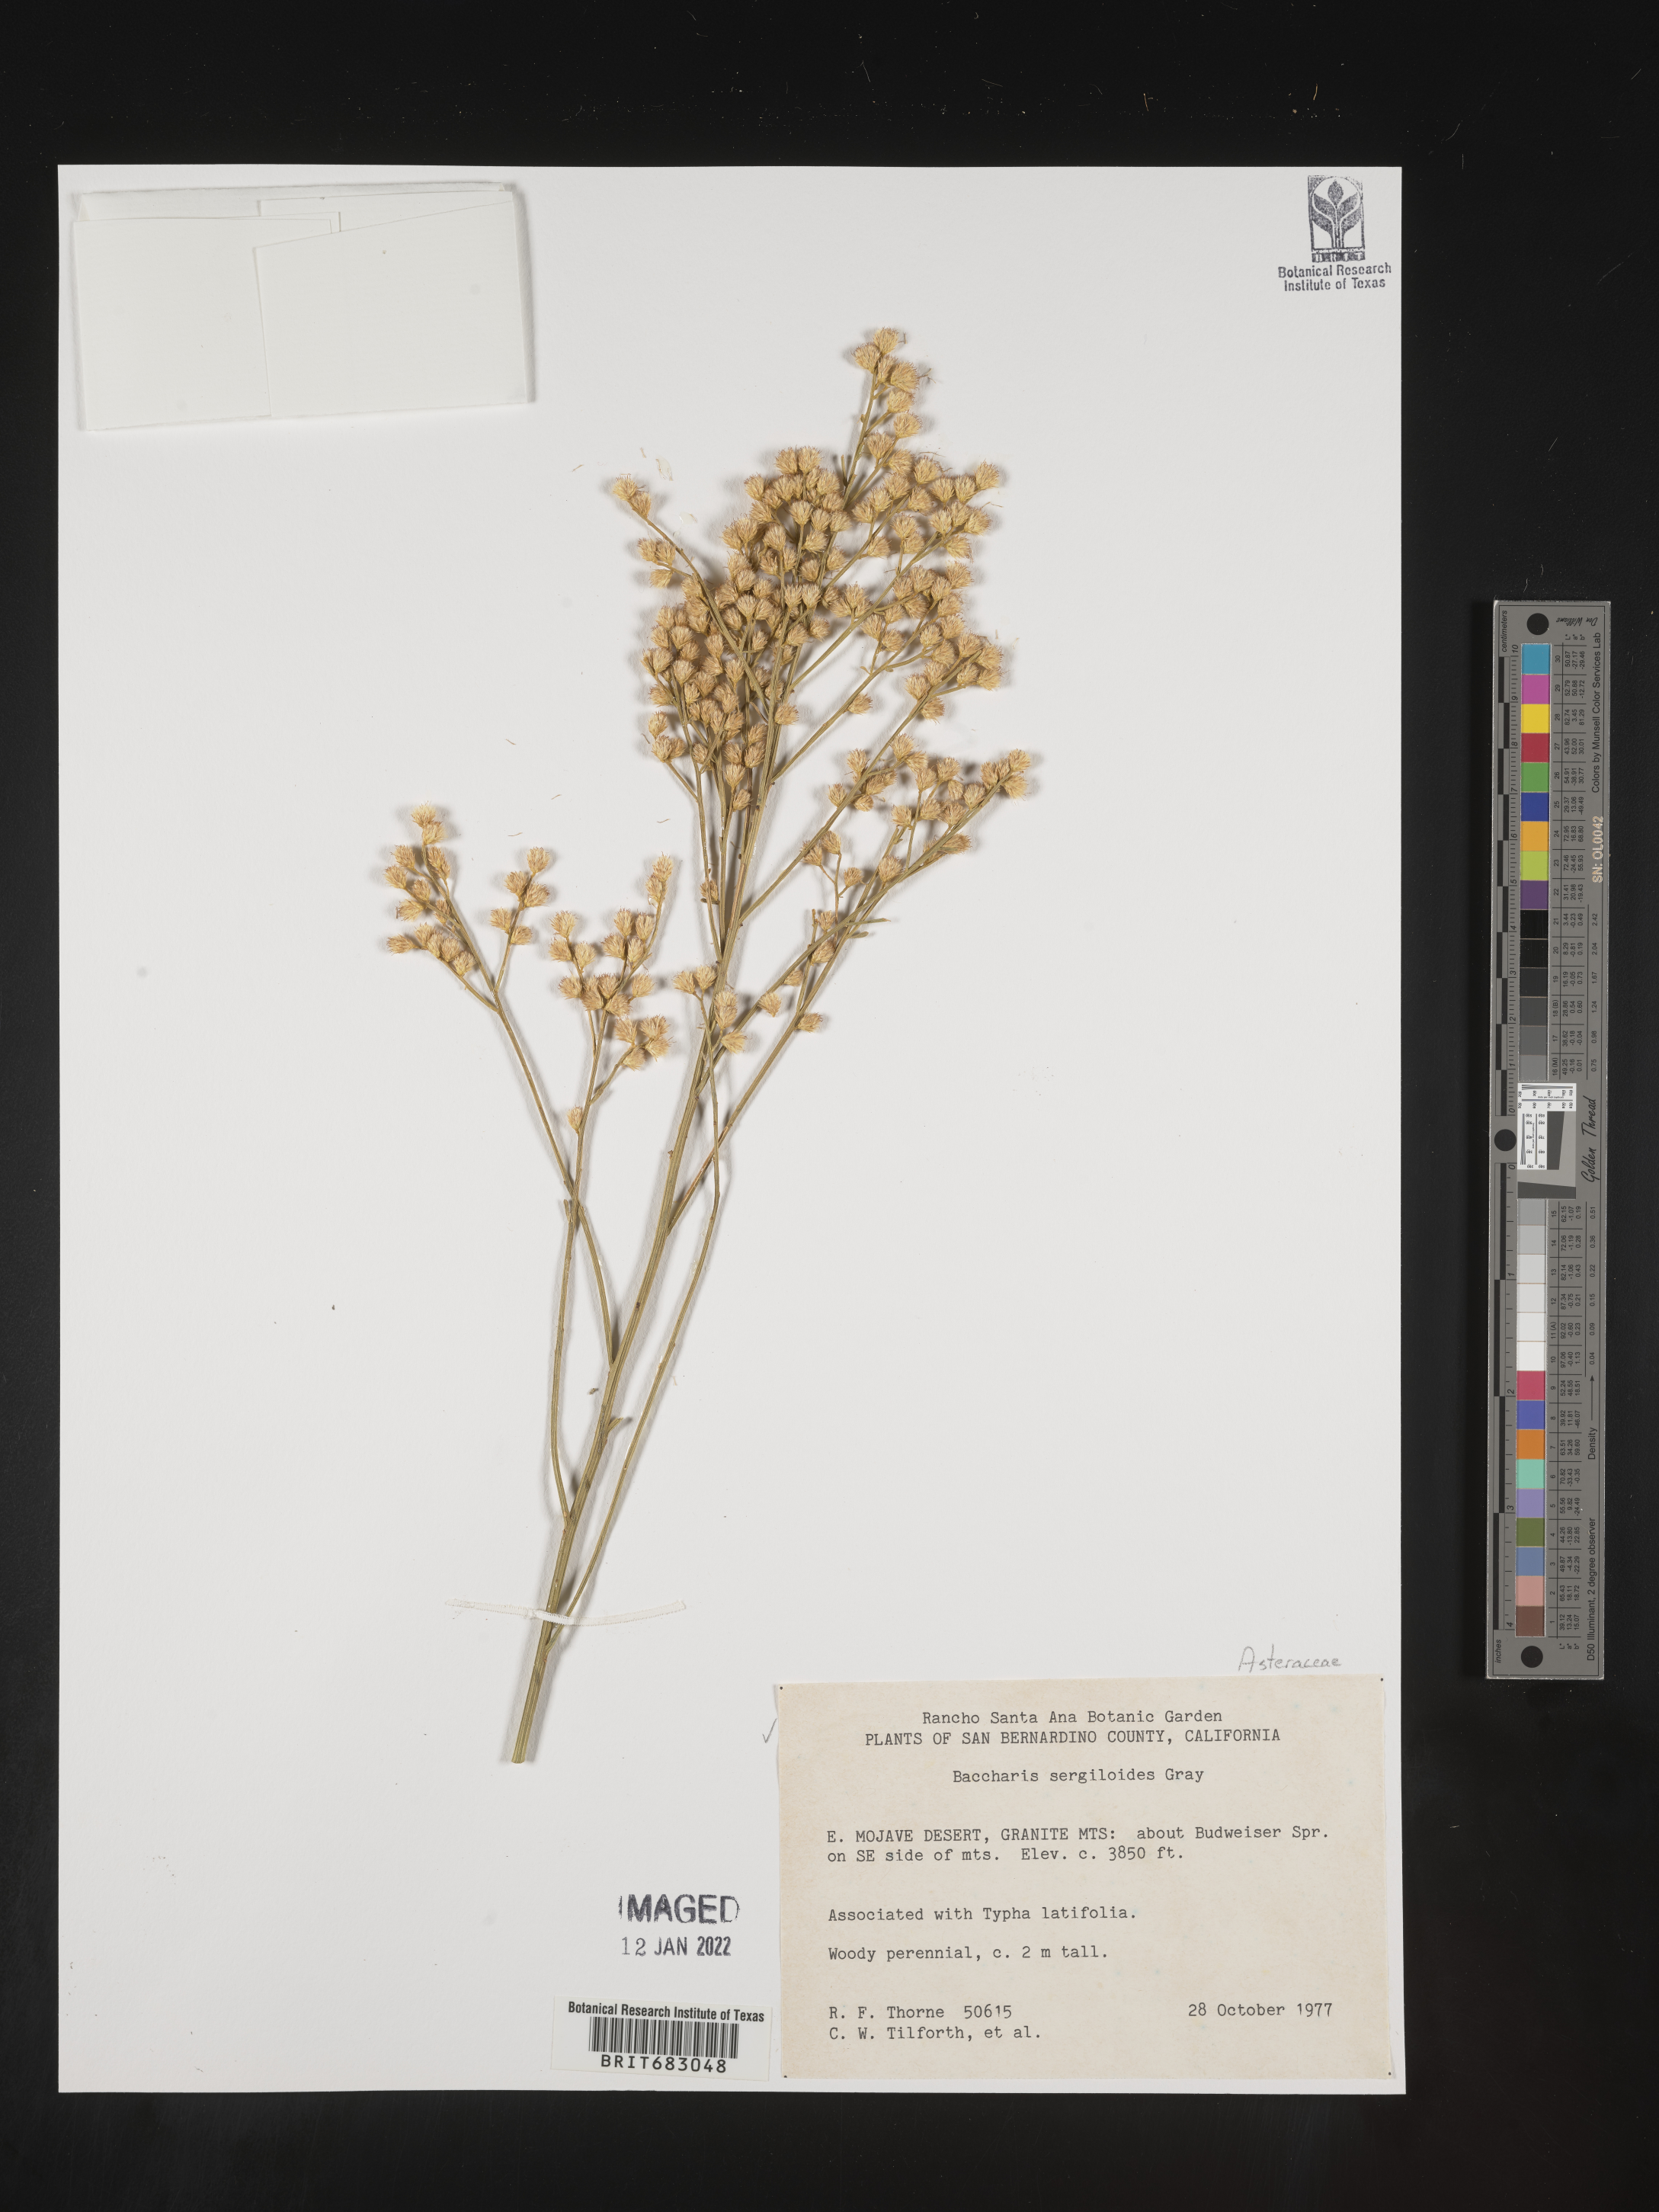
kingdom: Plantae
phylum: Tracheophyta
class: Magnoliopsida
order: Asterales
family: Asteraceae
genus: Baccharis
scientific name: Baccharis sergiloides
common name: Desert baccharis
